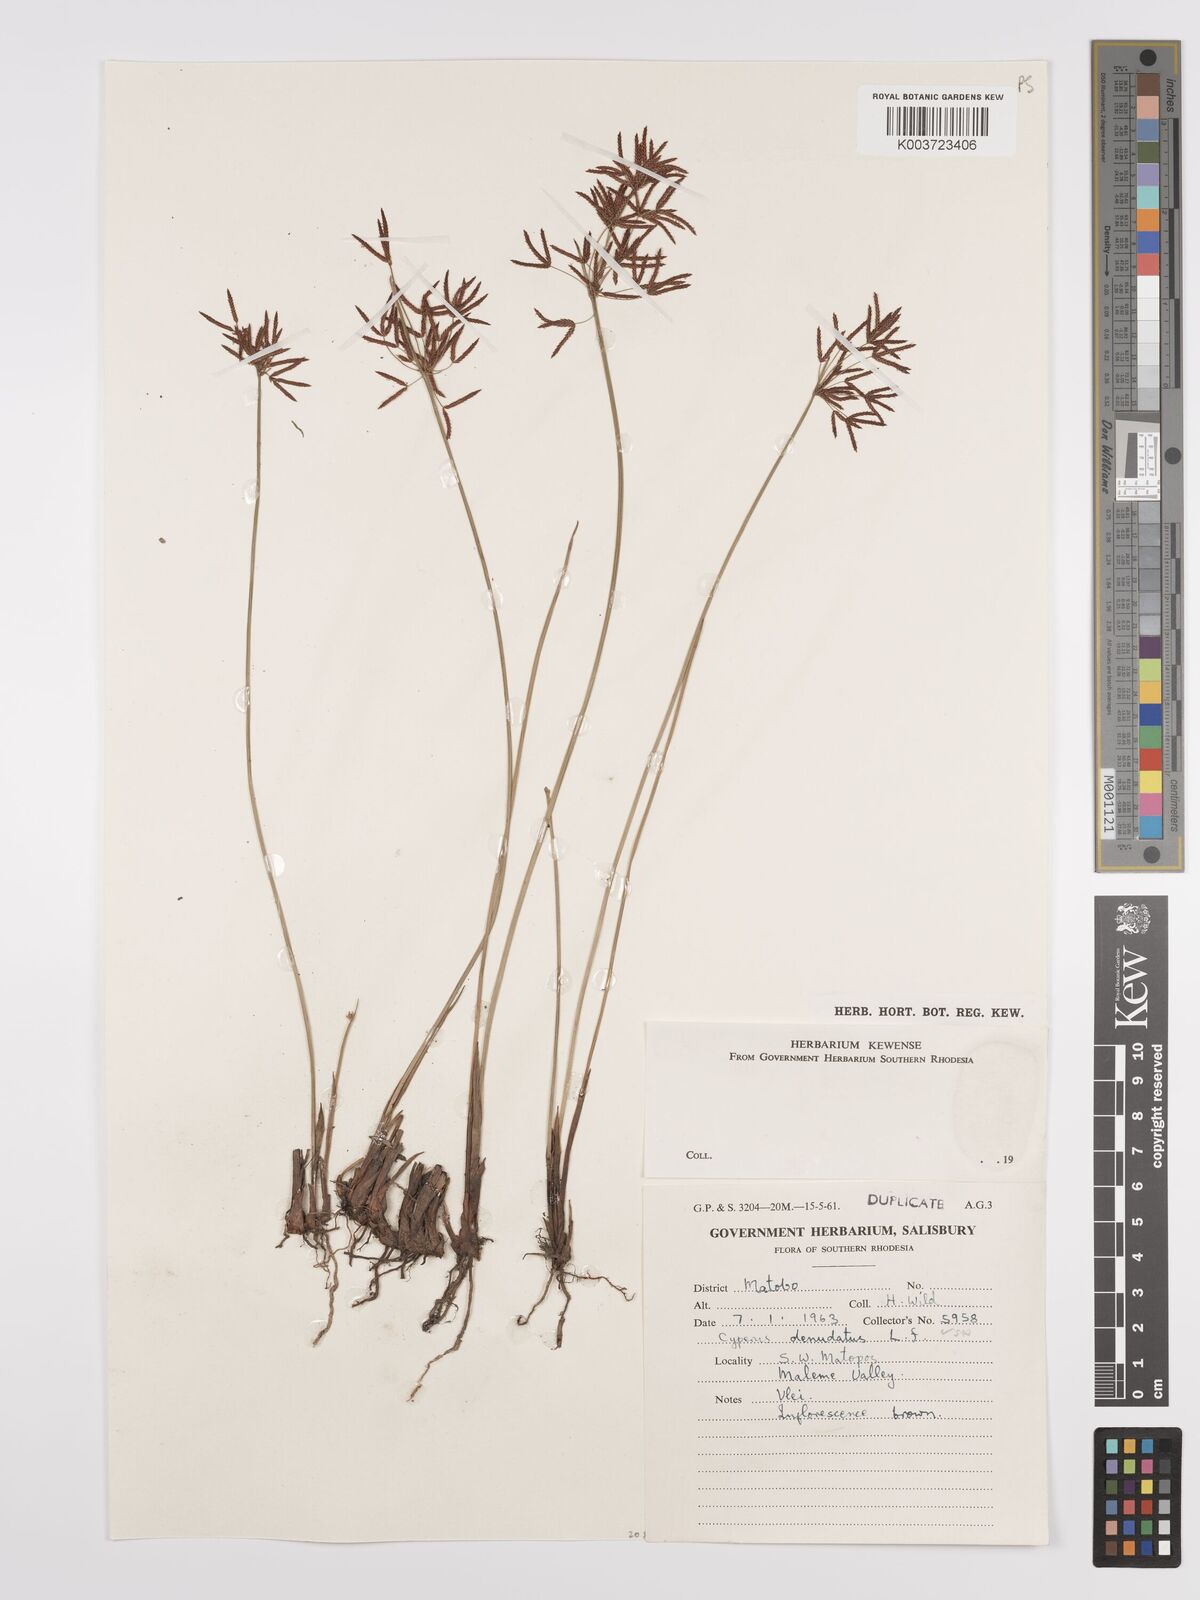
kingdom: Plantae
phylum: Tracheophyta
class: Liliopsida
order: Poales
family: Cyperaceae
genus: Cyperus
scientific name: Cyperus denudatus
